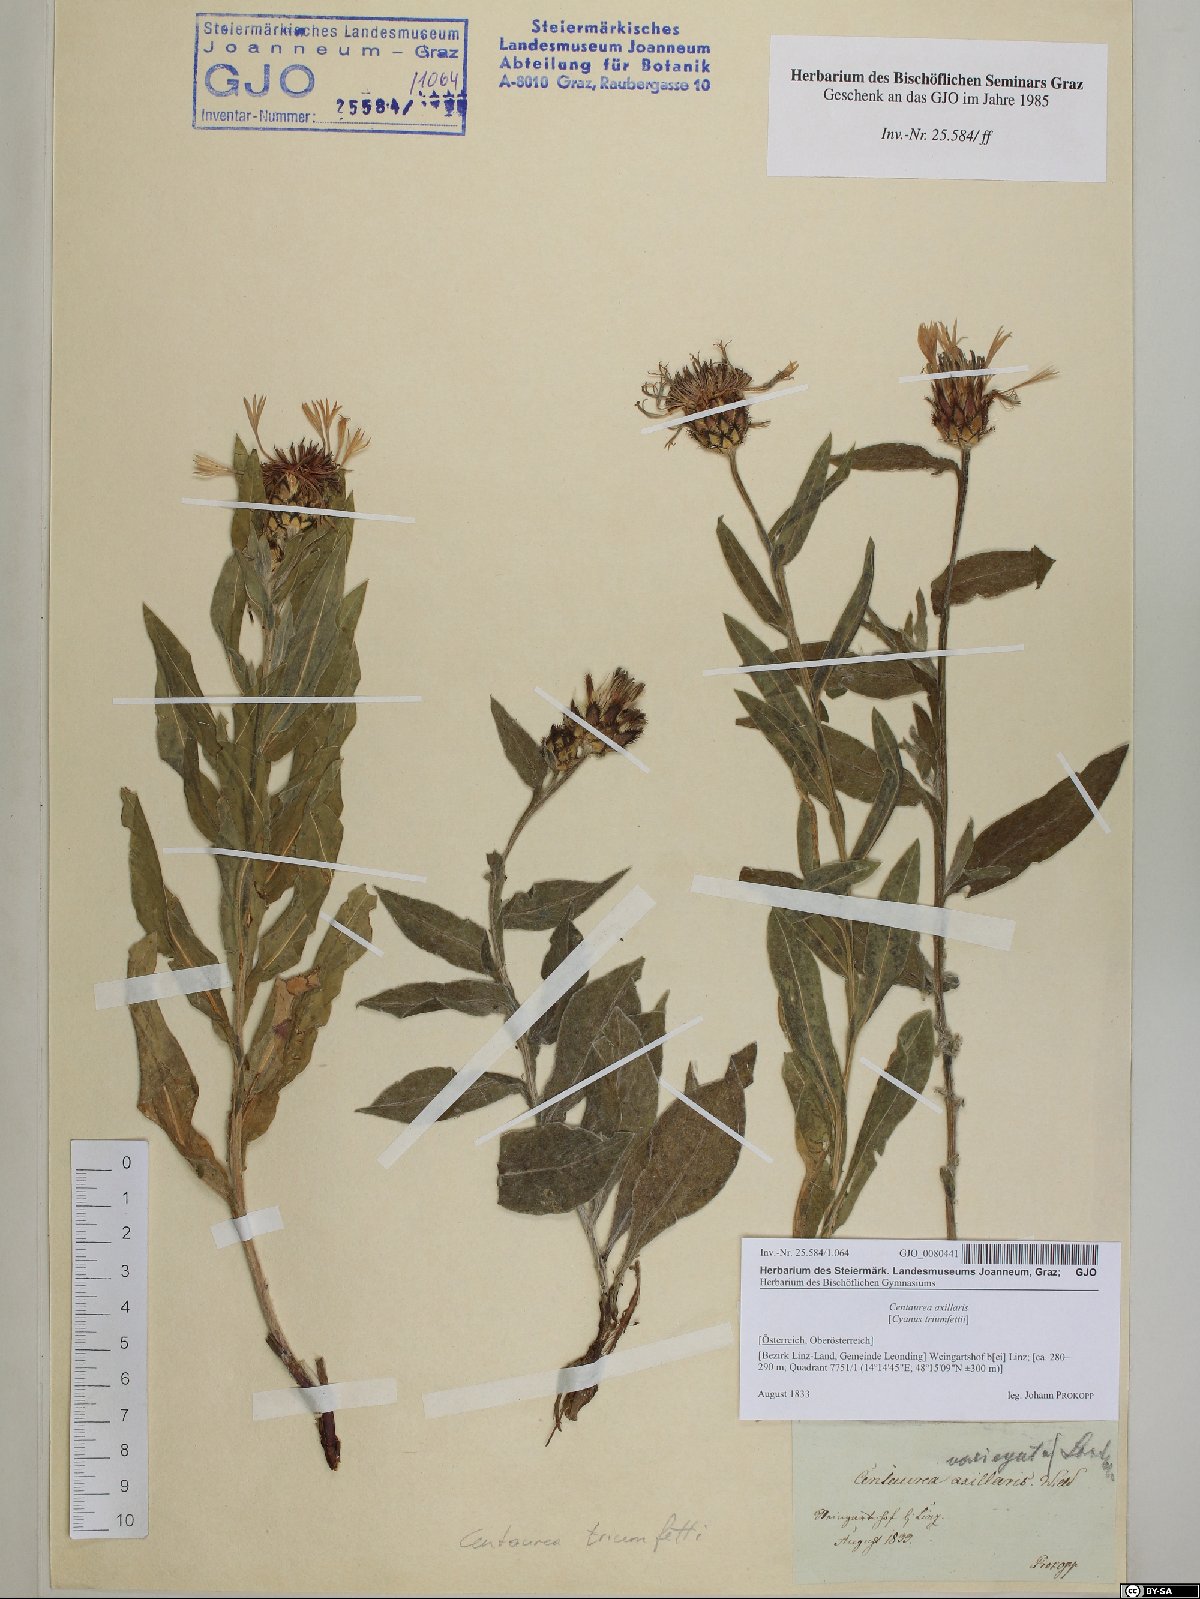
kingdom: Plantae
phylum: Tracheophyta
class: Magnoliopsida
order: Asterales
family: Asteraceae
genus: Centaurea
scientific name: Centaurea triumfettii
